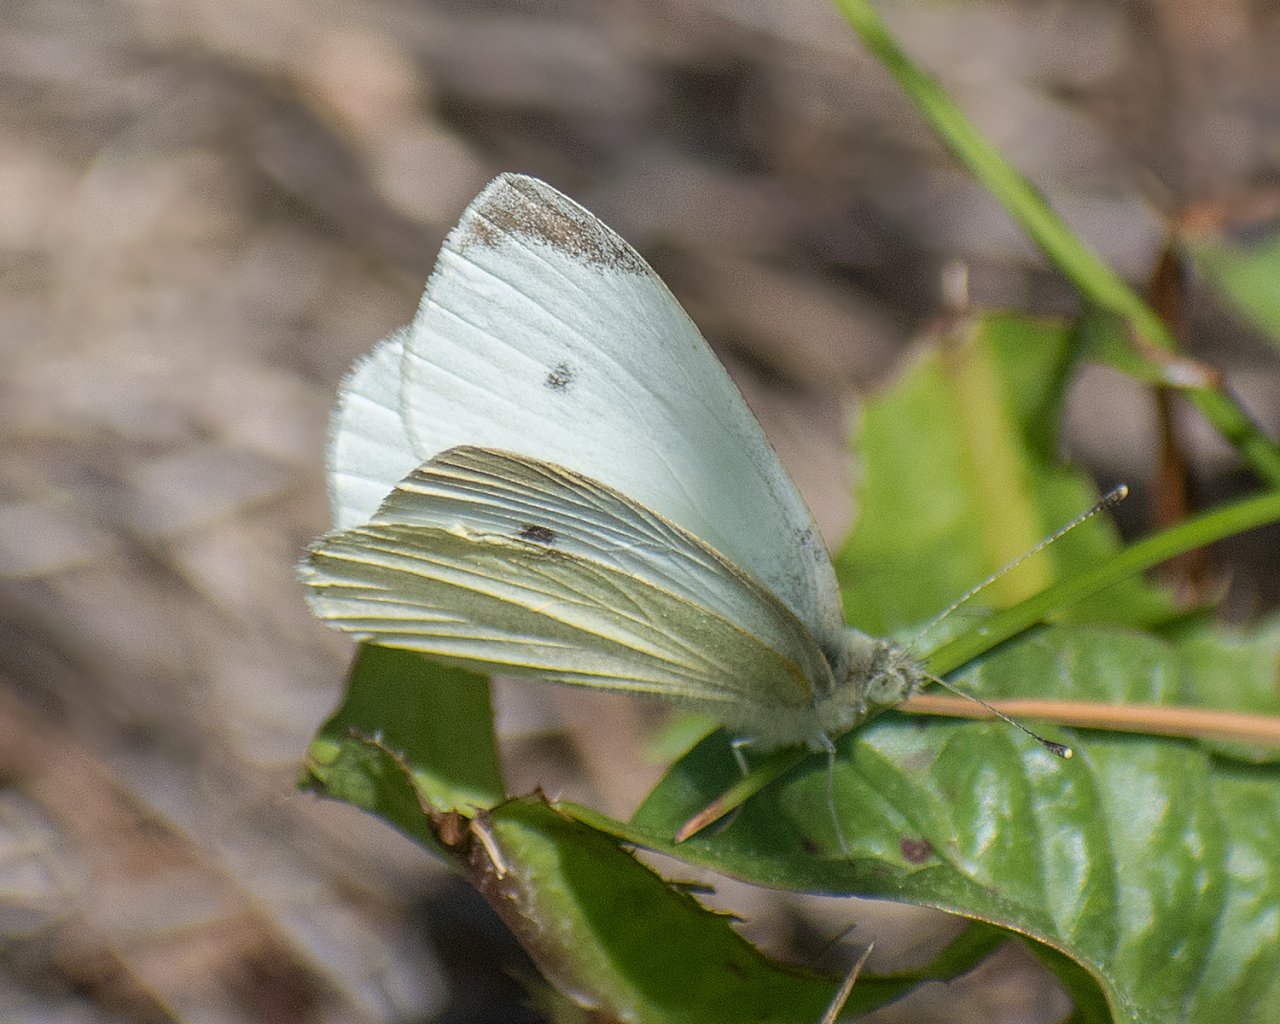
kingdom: Animalia
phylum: Arthropoda
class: Insecta
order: Lepidoptera
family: Pieridae
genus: Pieris
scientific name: Pieris rapae
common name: Cabbage White
